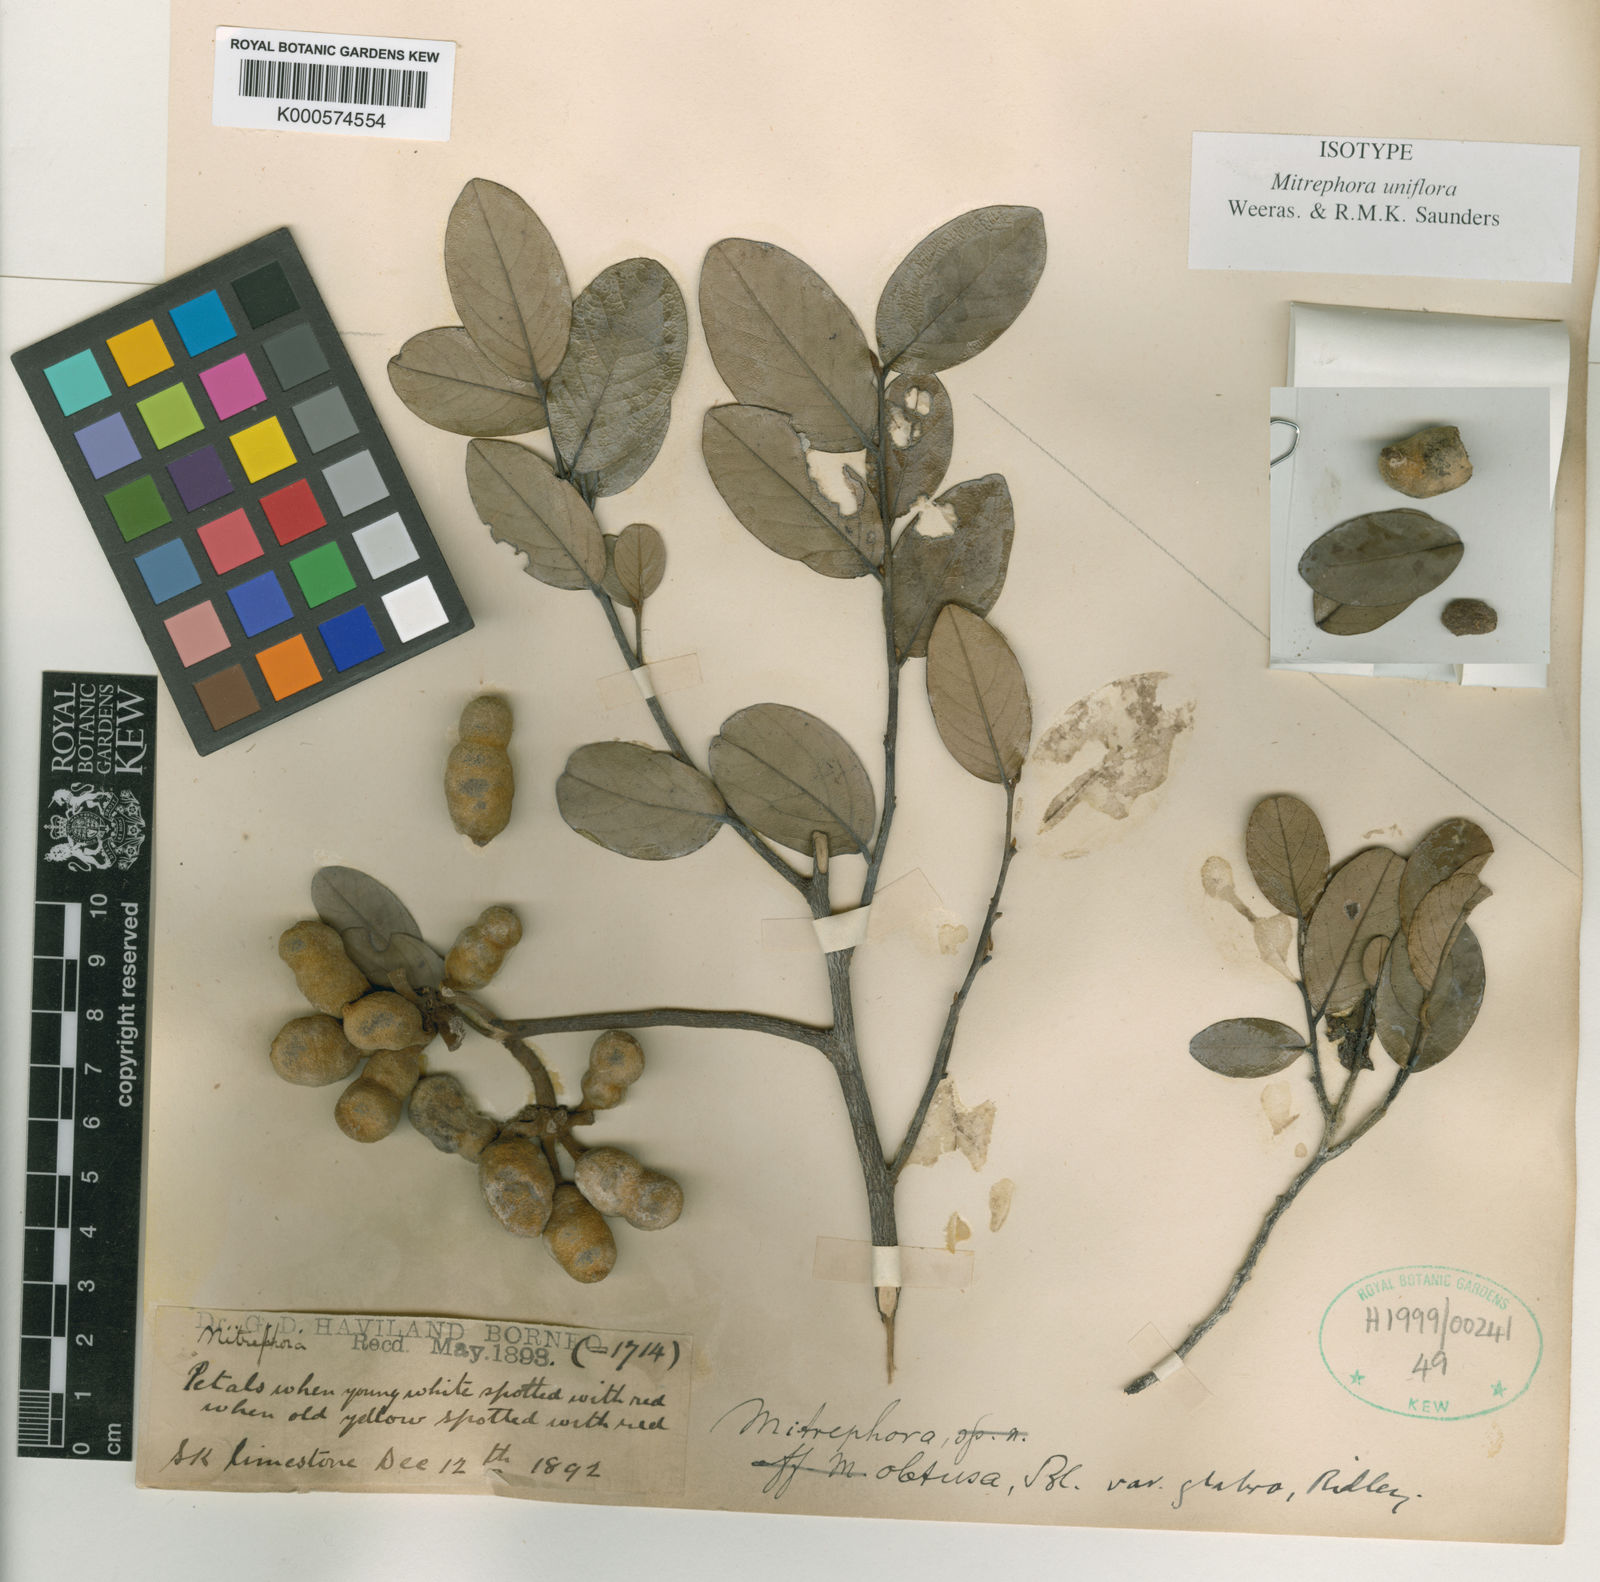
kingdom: Plantae
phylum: Tracheophyta
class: Magnoliopsida
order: Magnoliales
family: Annonaceae
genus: Mitrephora
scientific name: Mitrephora uniflora
